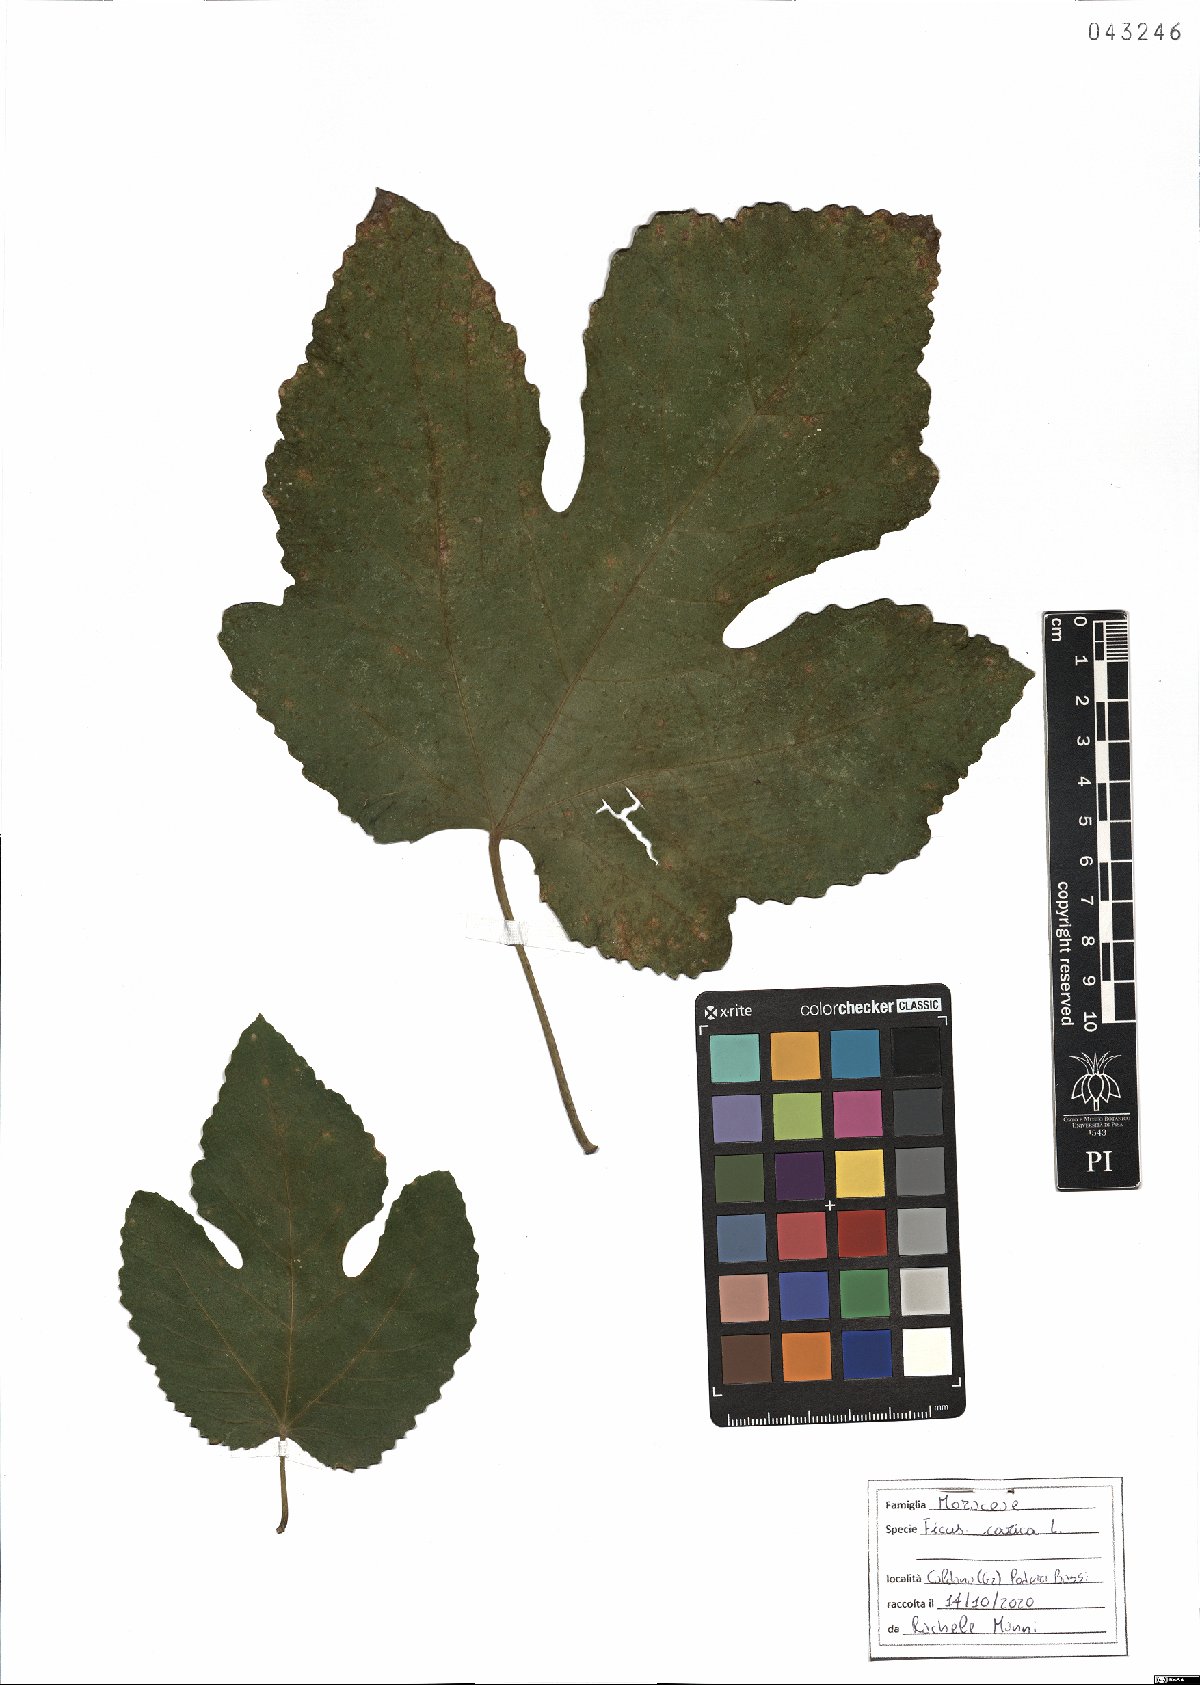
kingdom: Plantae
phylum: Tracheophyta
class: Magnoliopsida
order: Rosales
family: Moraceae
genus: Ficus
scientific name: Ficus carica
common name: Fig
